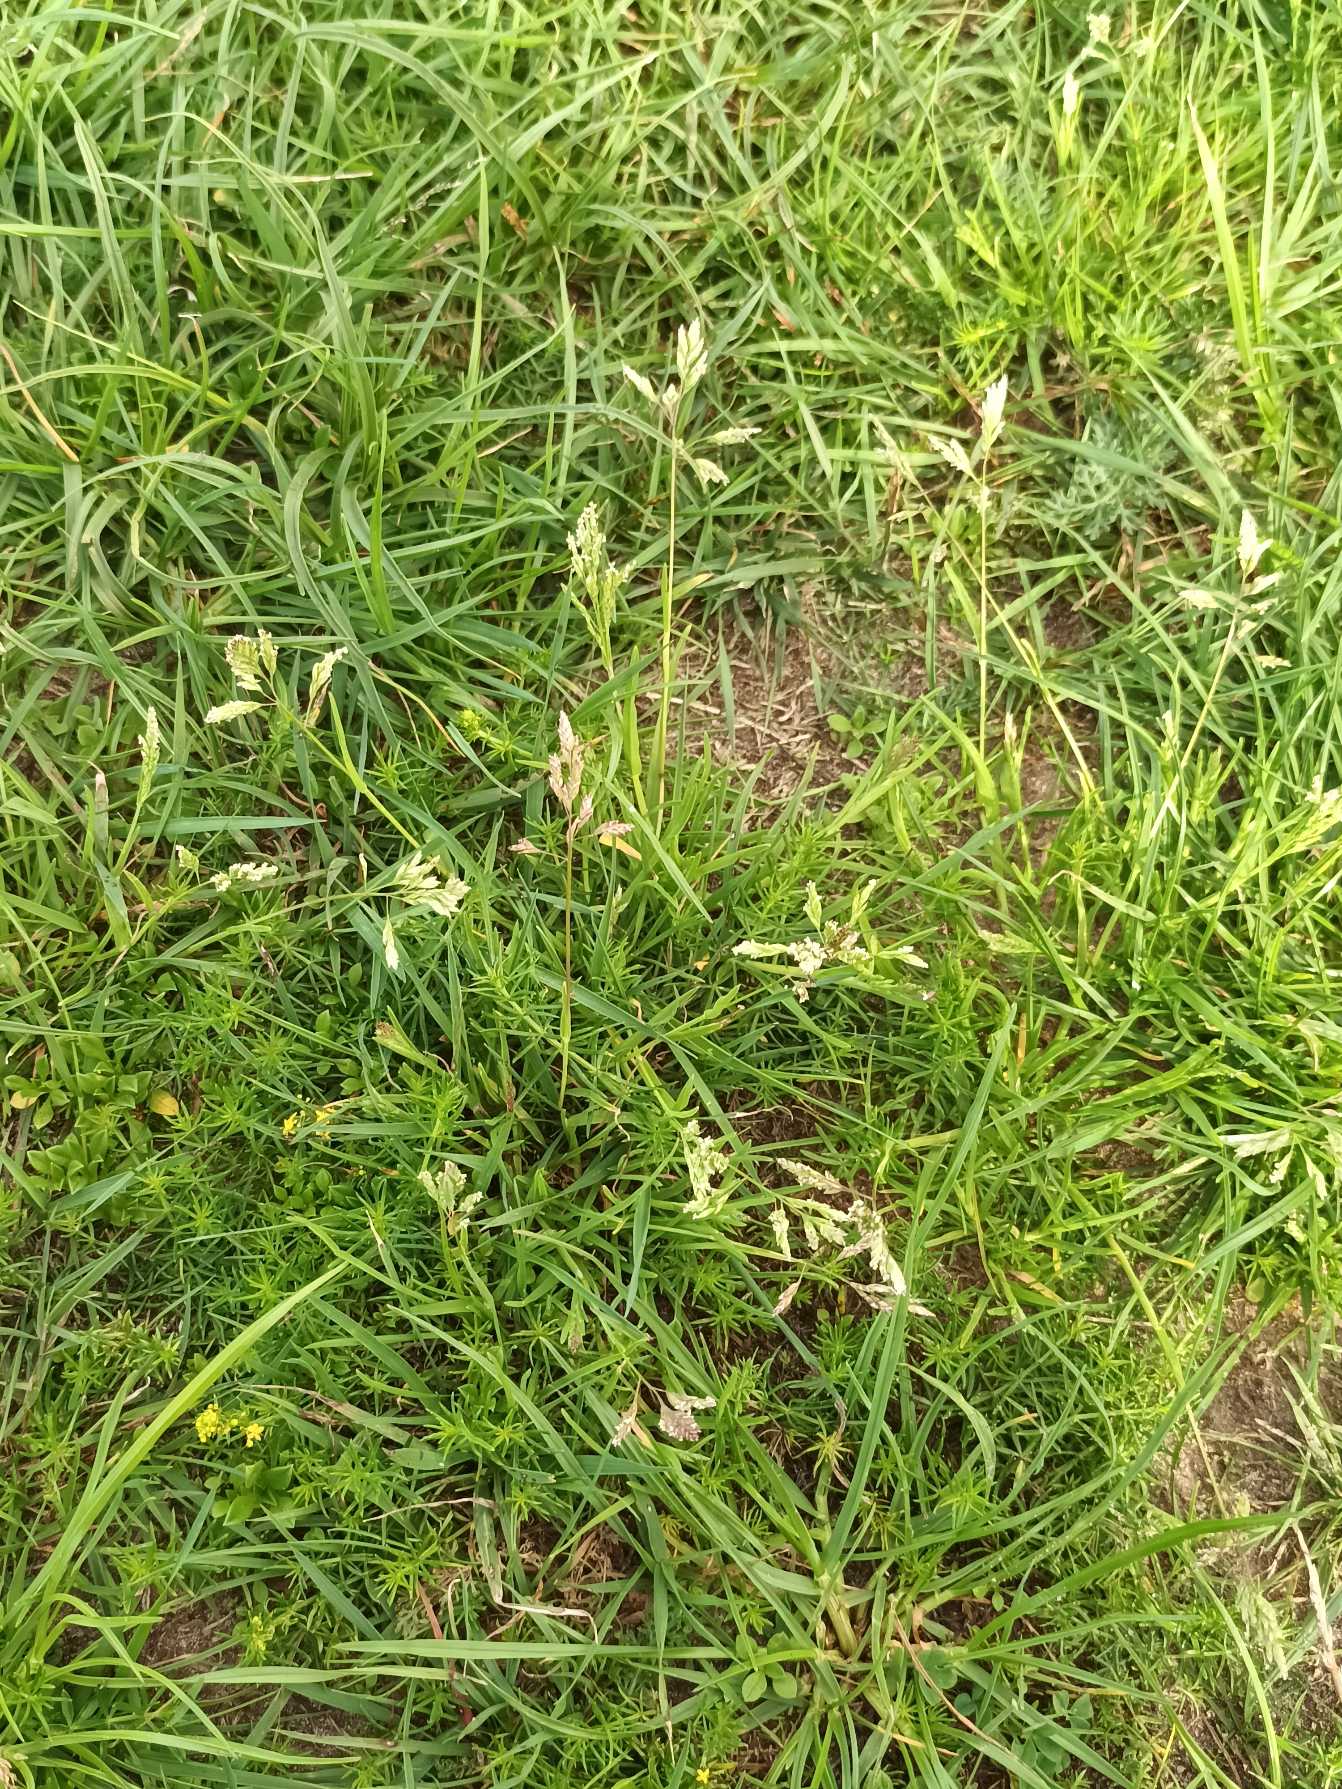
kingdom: Plantae
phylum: Tracheophyta
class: Liliopsida
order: Poales
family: Poaceae
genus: Poa
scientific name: Poa annua
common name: Enårig rapgræs
